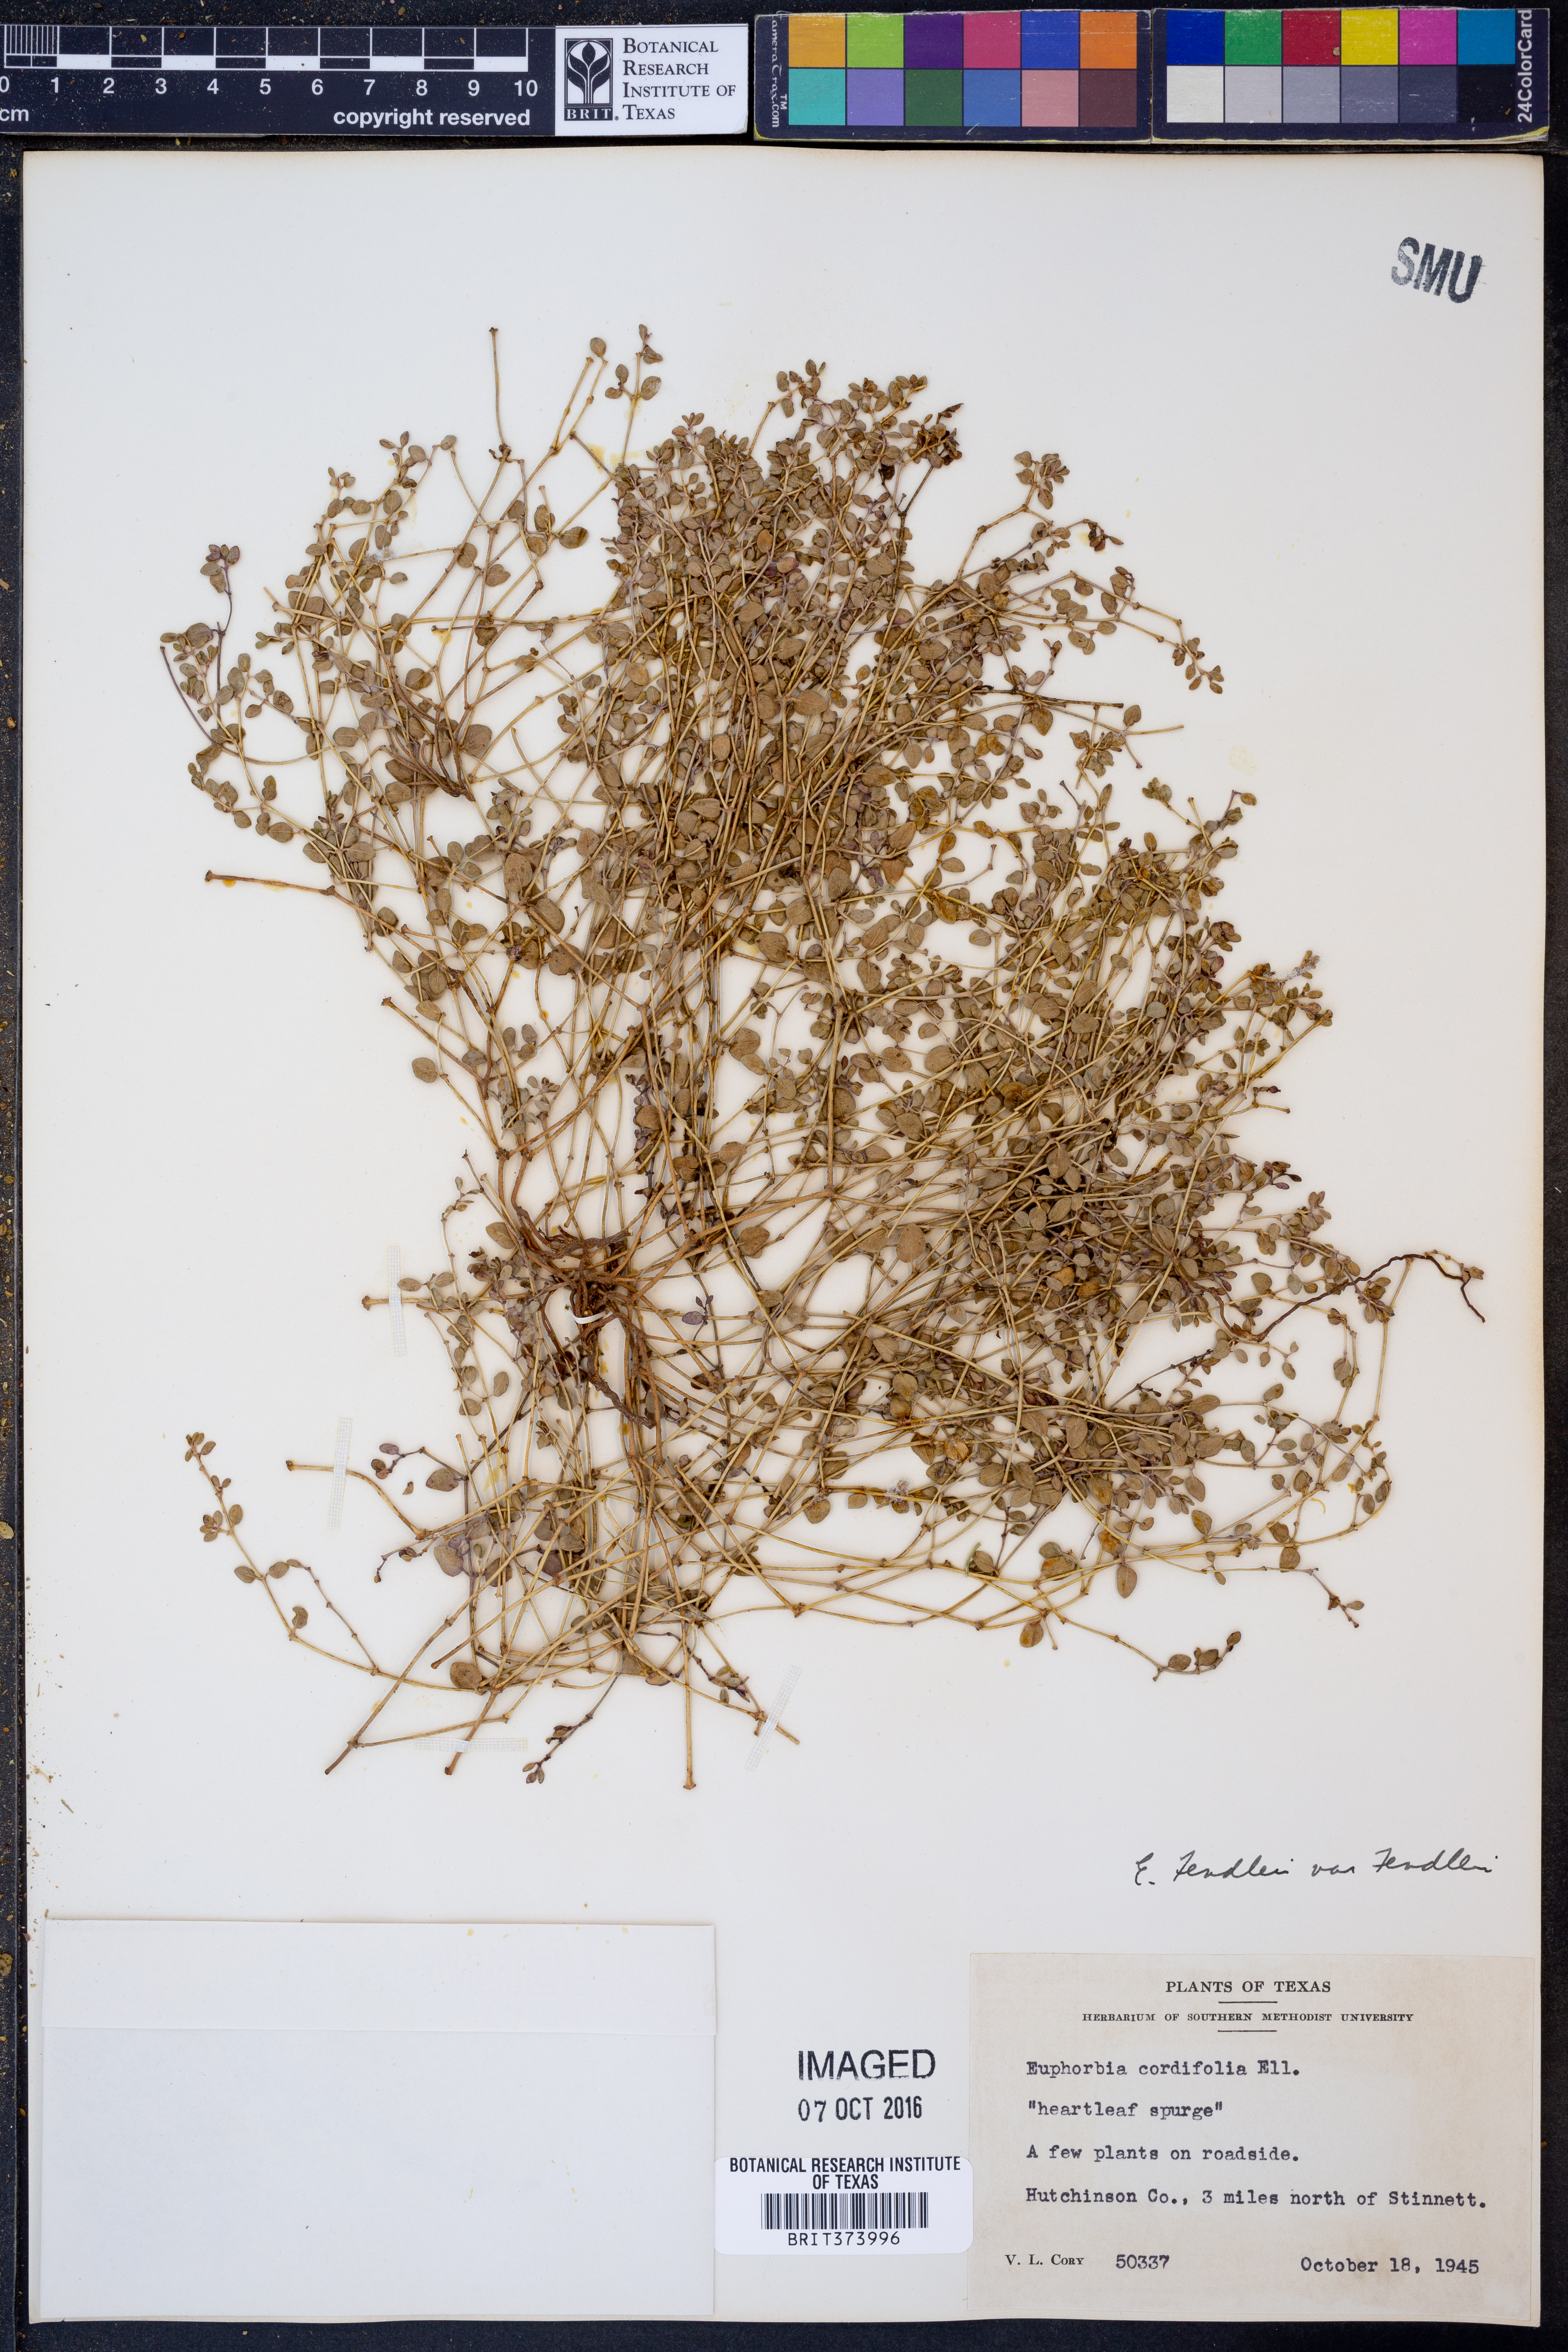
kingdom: Plantae
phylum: Tracheophyta
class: Magnoliopsida
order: Malpighiales
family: Euphorbiaceae
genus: Euphorbia
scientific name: Euphorbia fendleri
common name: Fendler's euphorbia
